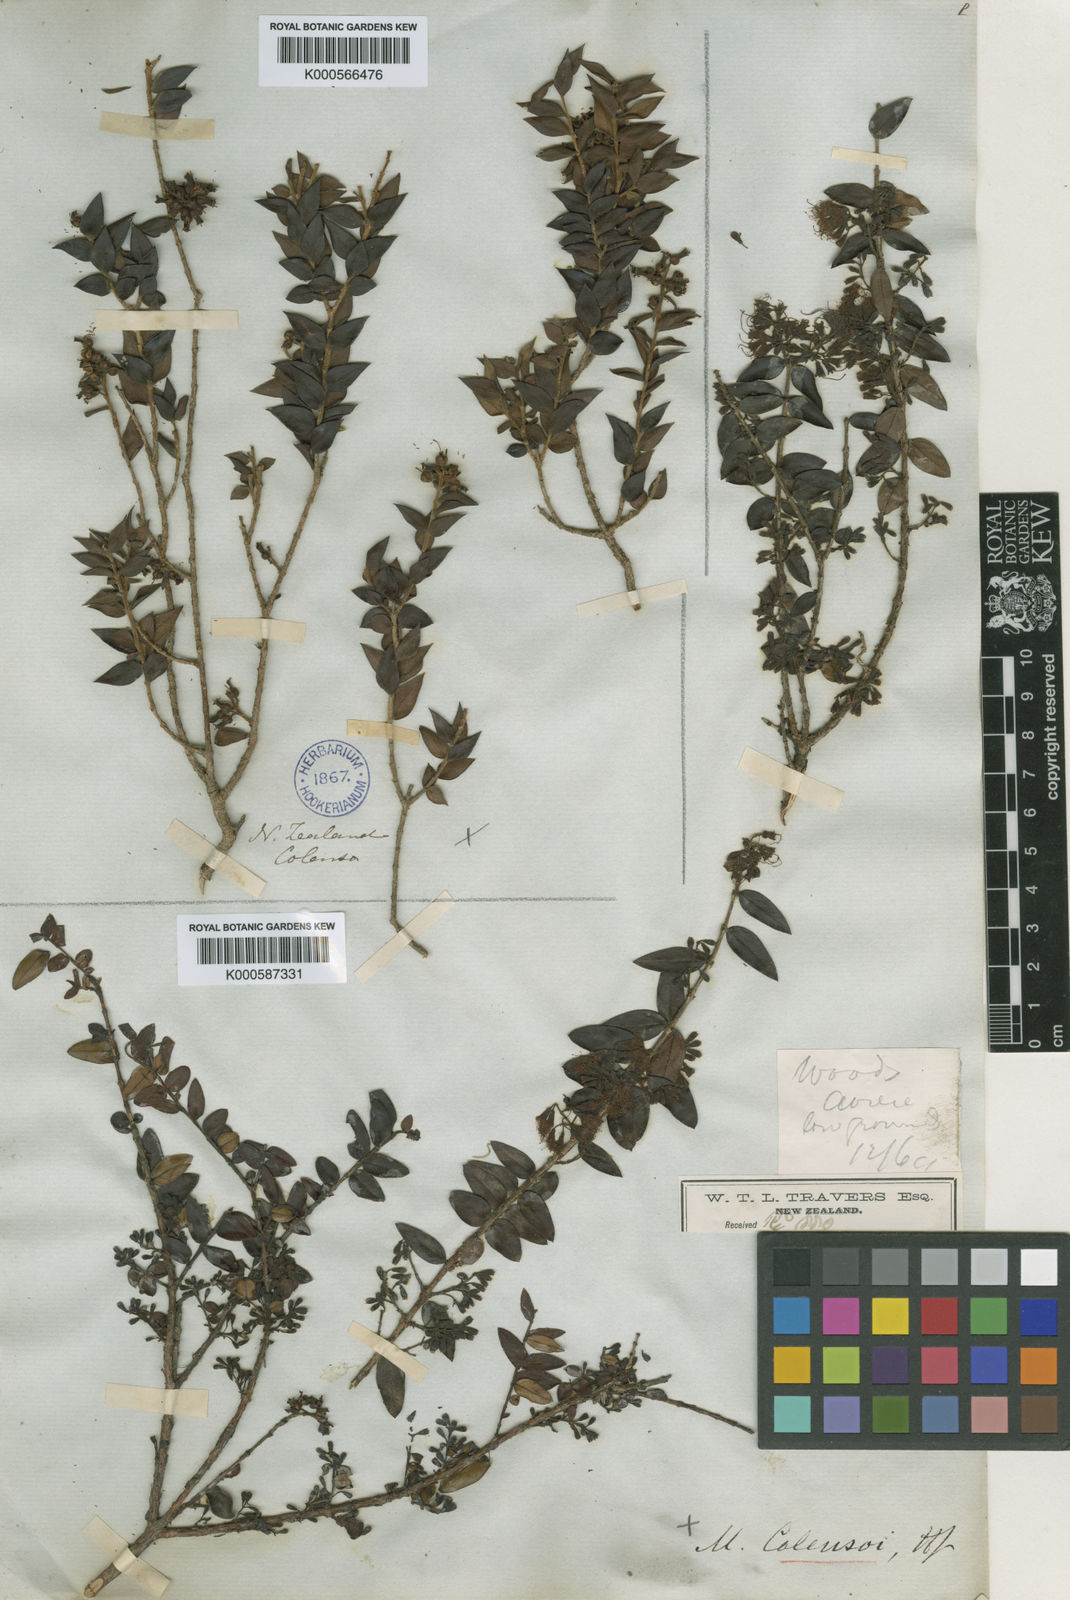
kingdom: Plantae
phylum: Tracheophyta
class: Magnoliopsida
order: Myrtales
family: Myrtaceae
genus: Metrosideros
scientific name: Metrosideros colensoi
